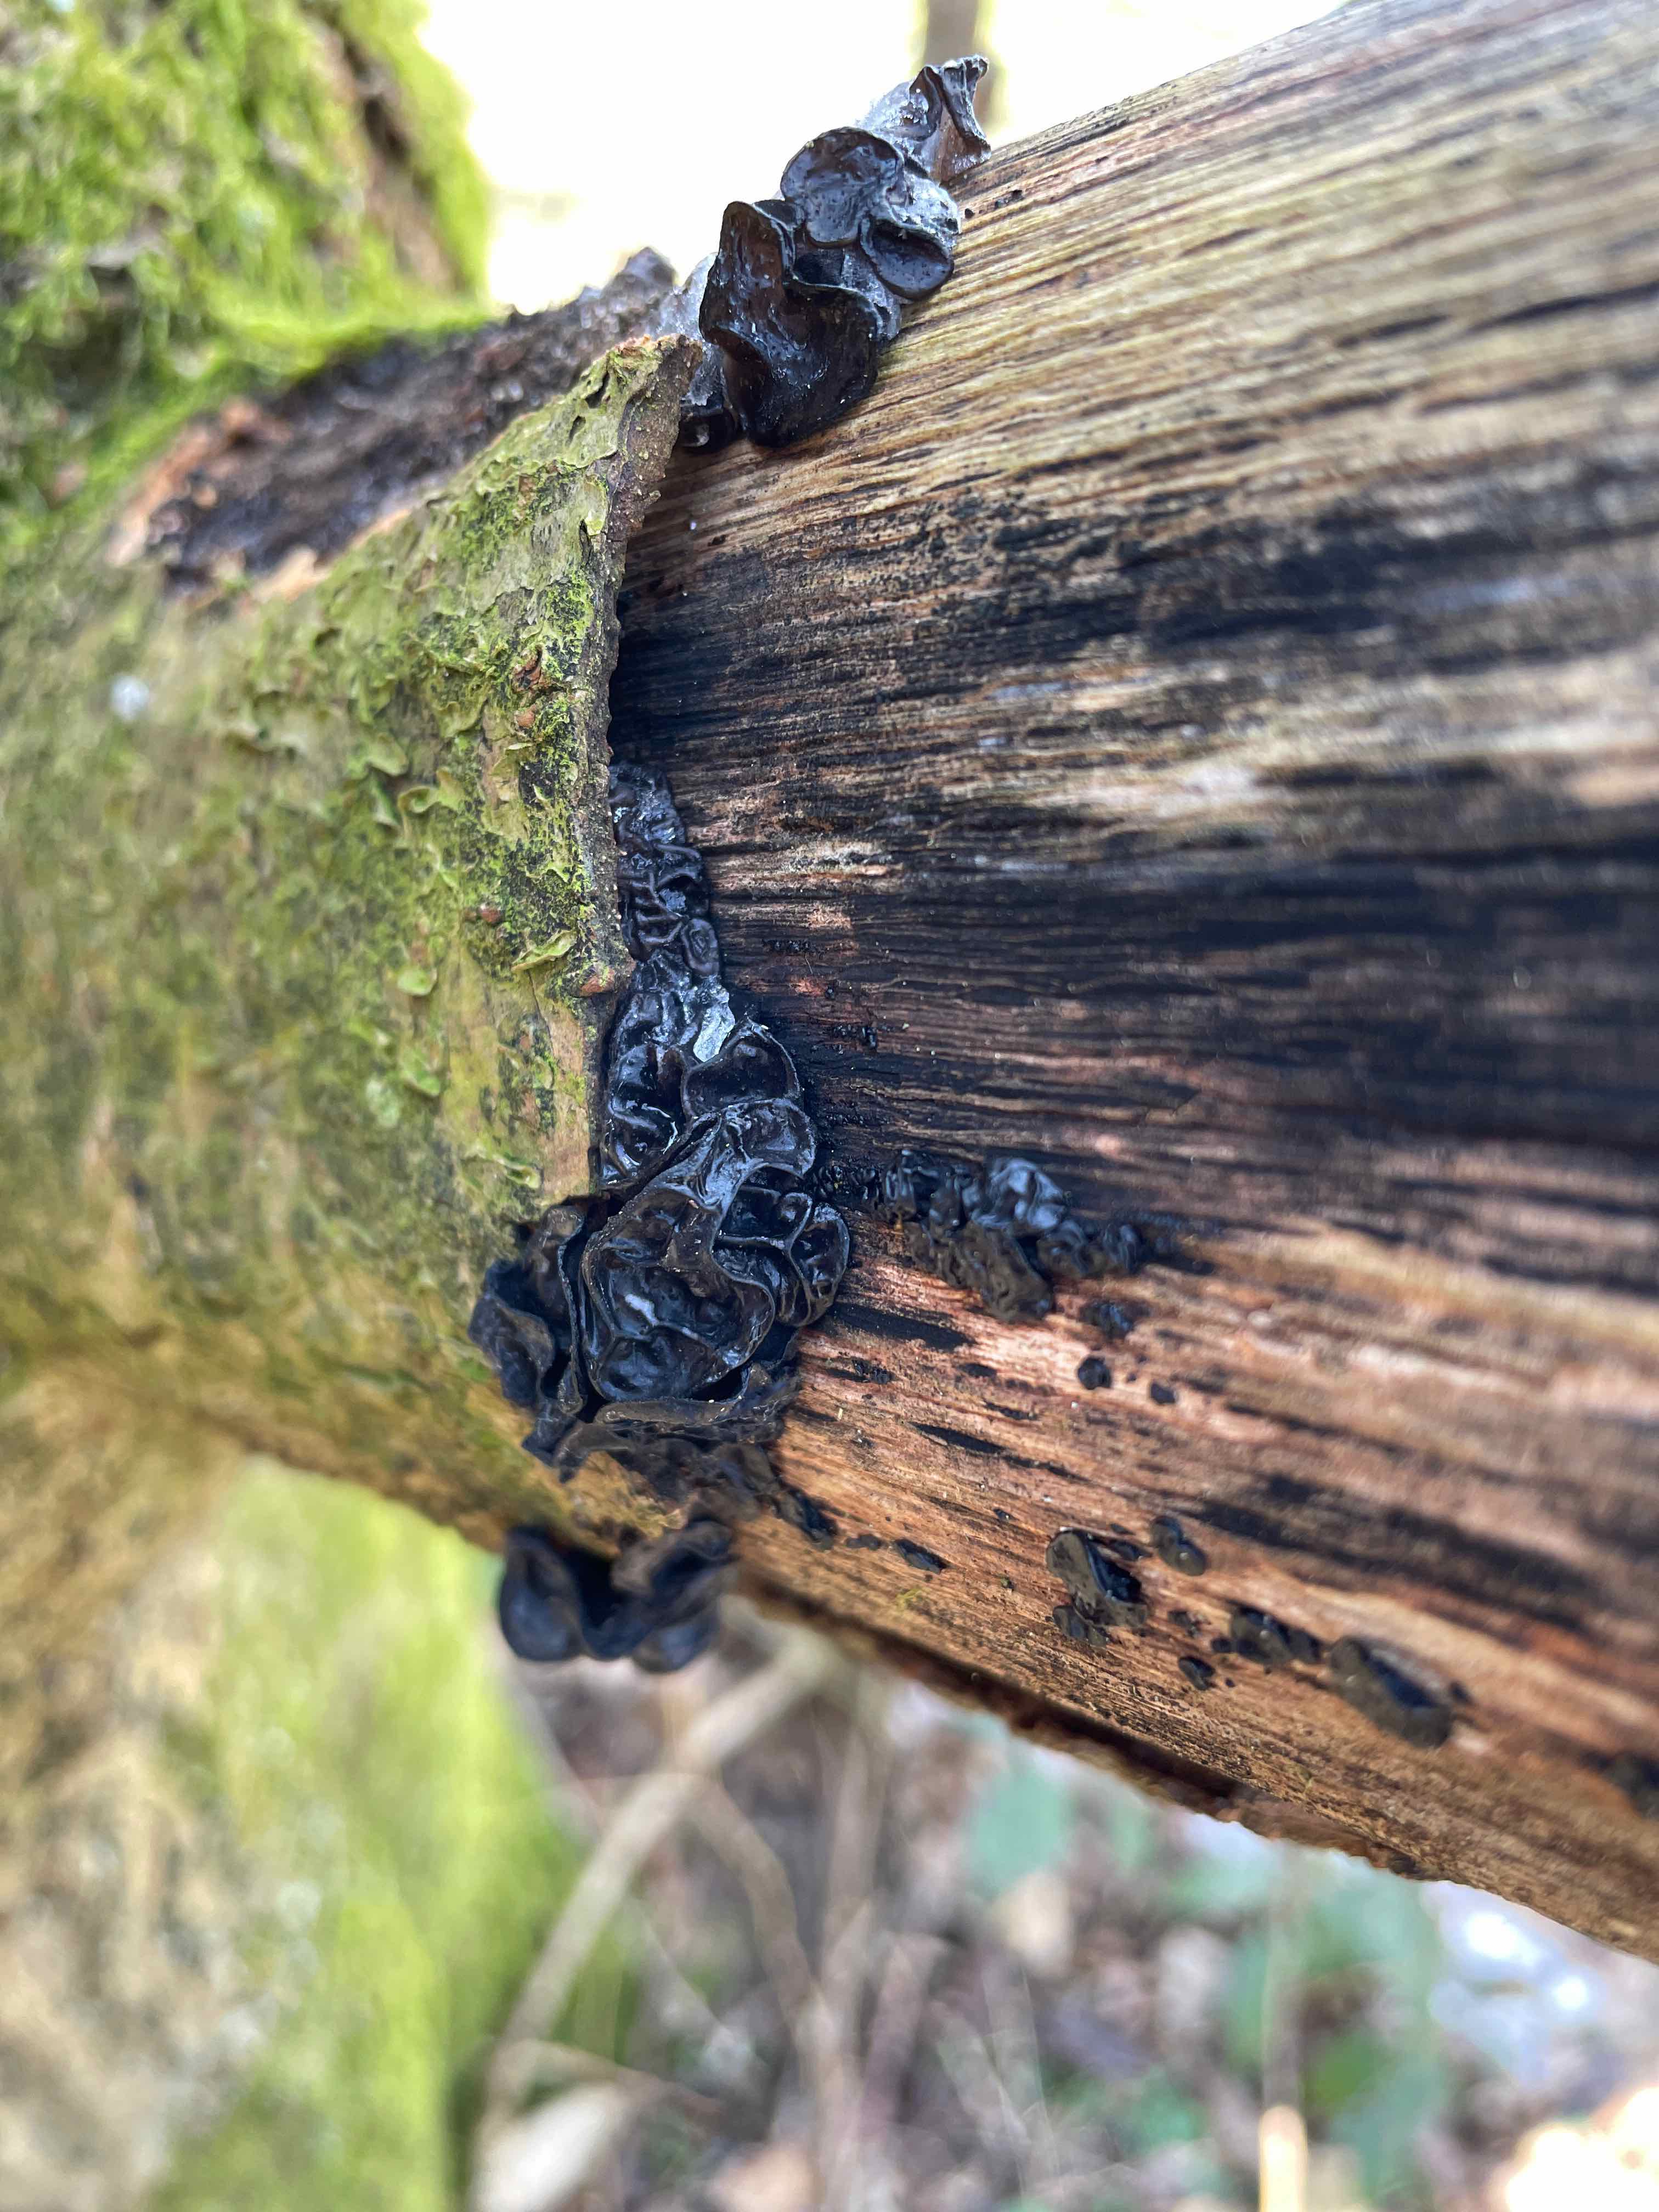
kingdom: Fungi
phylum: Basidiomycota
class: Agaricomycetes
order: Auriculariales
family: Auriculariaceae
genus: Exidia
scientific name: Exidia glandulosa
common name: ege-bævretop
